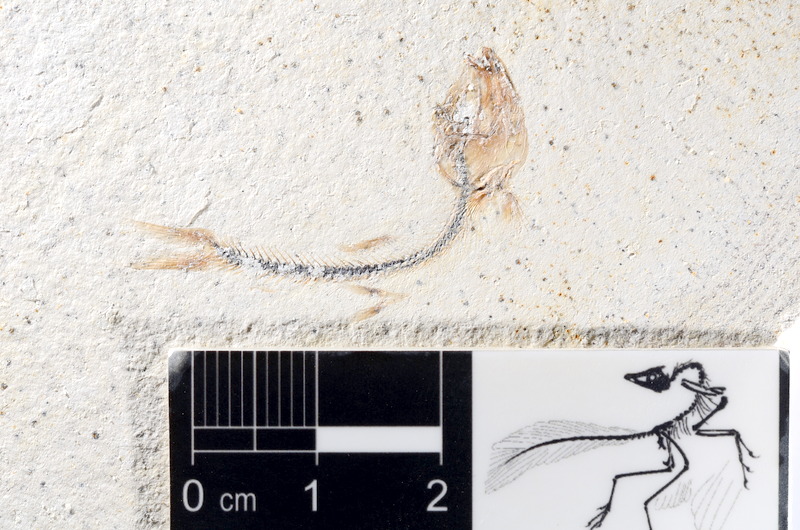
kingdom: Animalia
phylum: Chordata
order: Salmoniformes
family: Orthogonikleithridae
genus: Orthogonikleithrus
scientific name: Orthogonikleithrus hoelli
